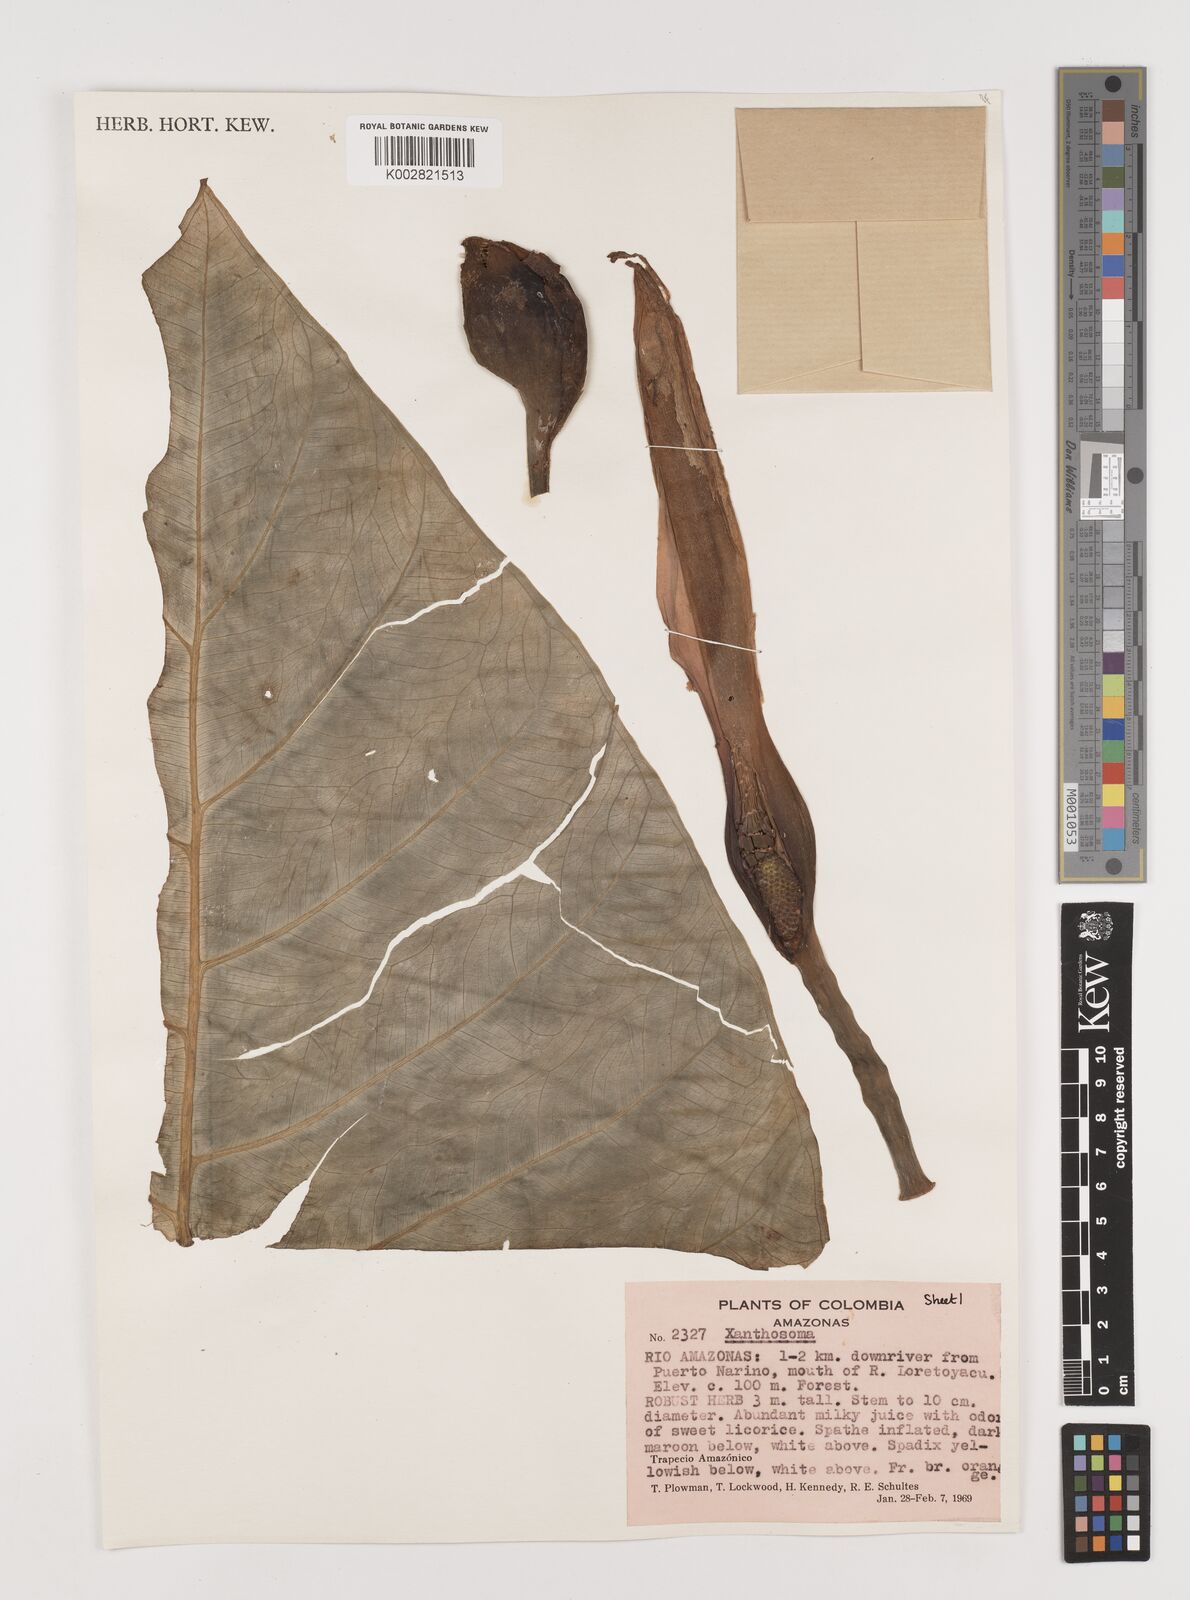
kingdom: Plantae
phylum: Tracheophyta
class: Liliopsida
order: Alismatales
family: Araceae
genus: Xanthosoma
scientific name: Xanthosoma
